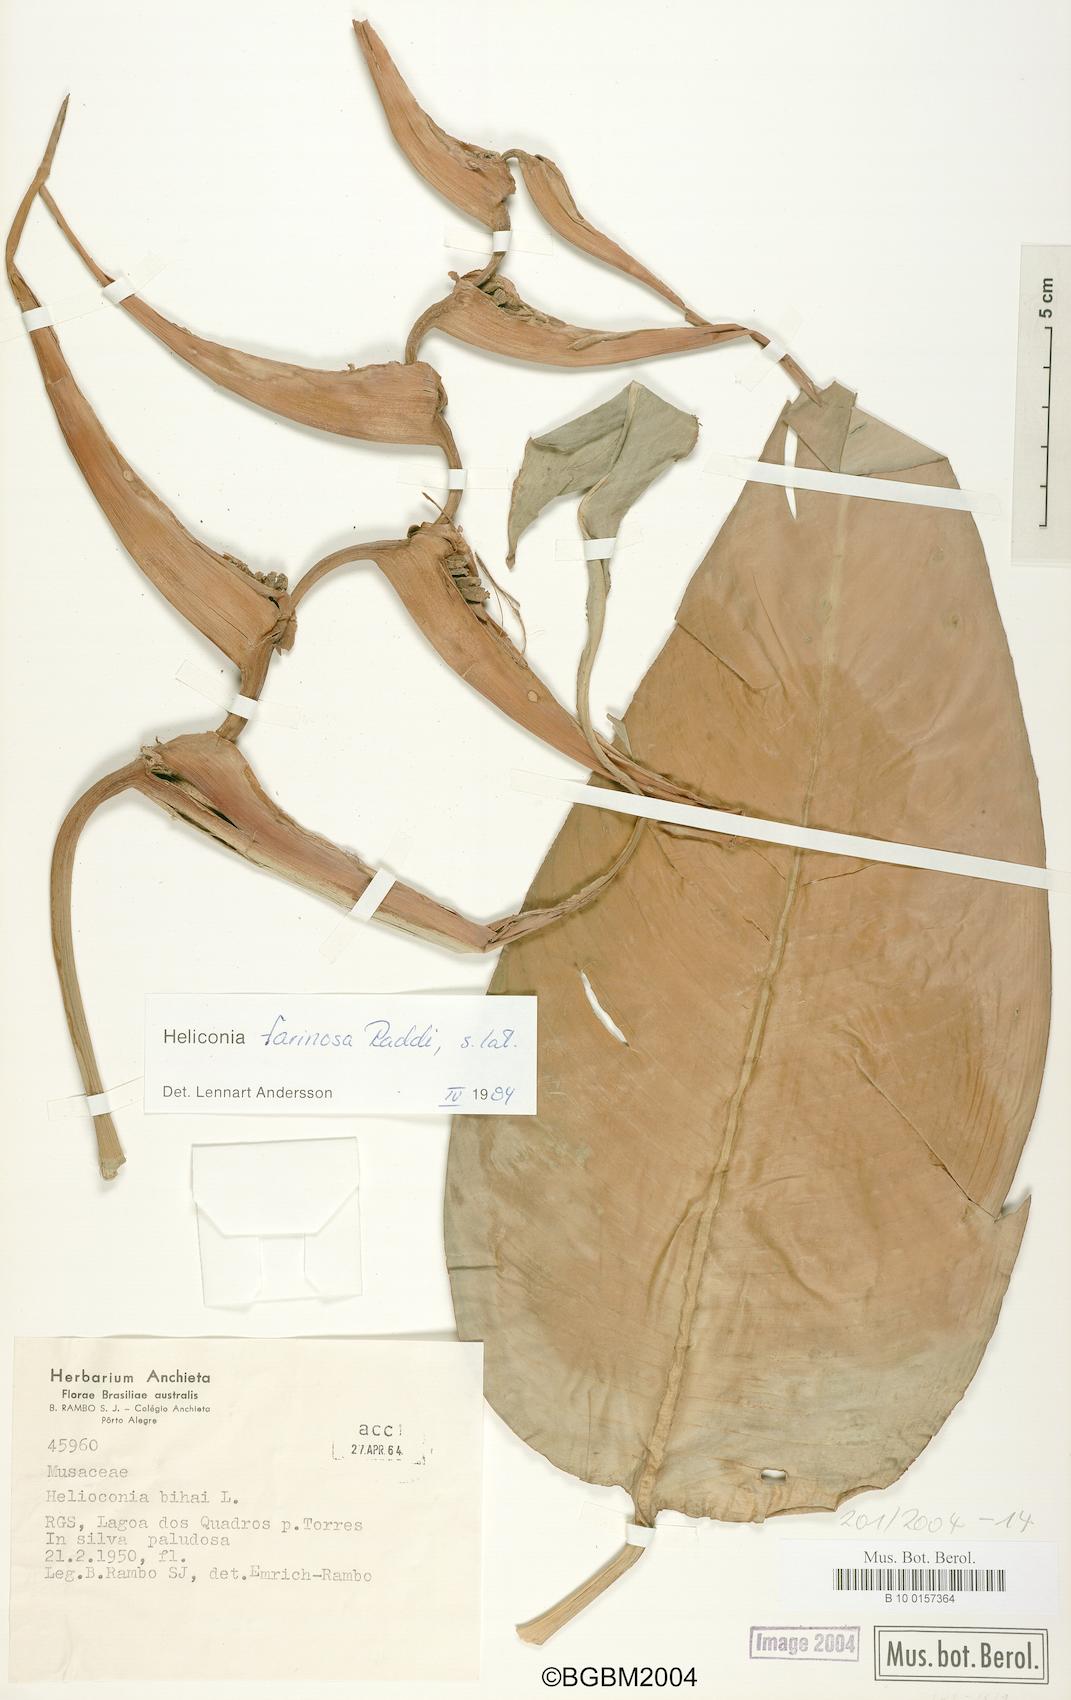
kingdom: Plantae
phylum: Tracheophyta
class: Liliopsida
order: Zingiberales
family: Heliconiaceae
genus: Heliconia
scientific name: Heliconia farinosa
